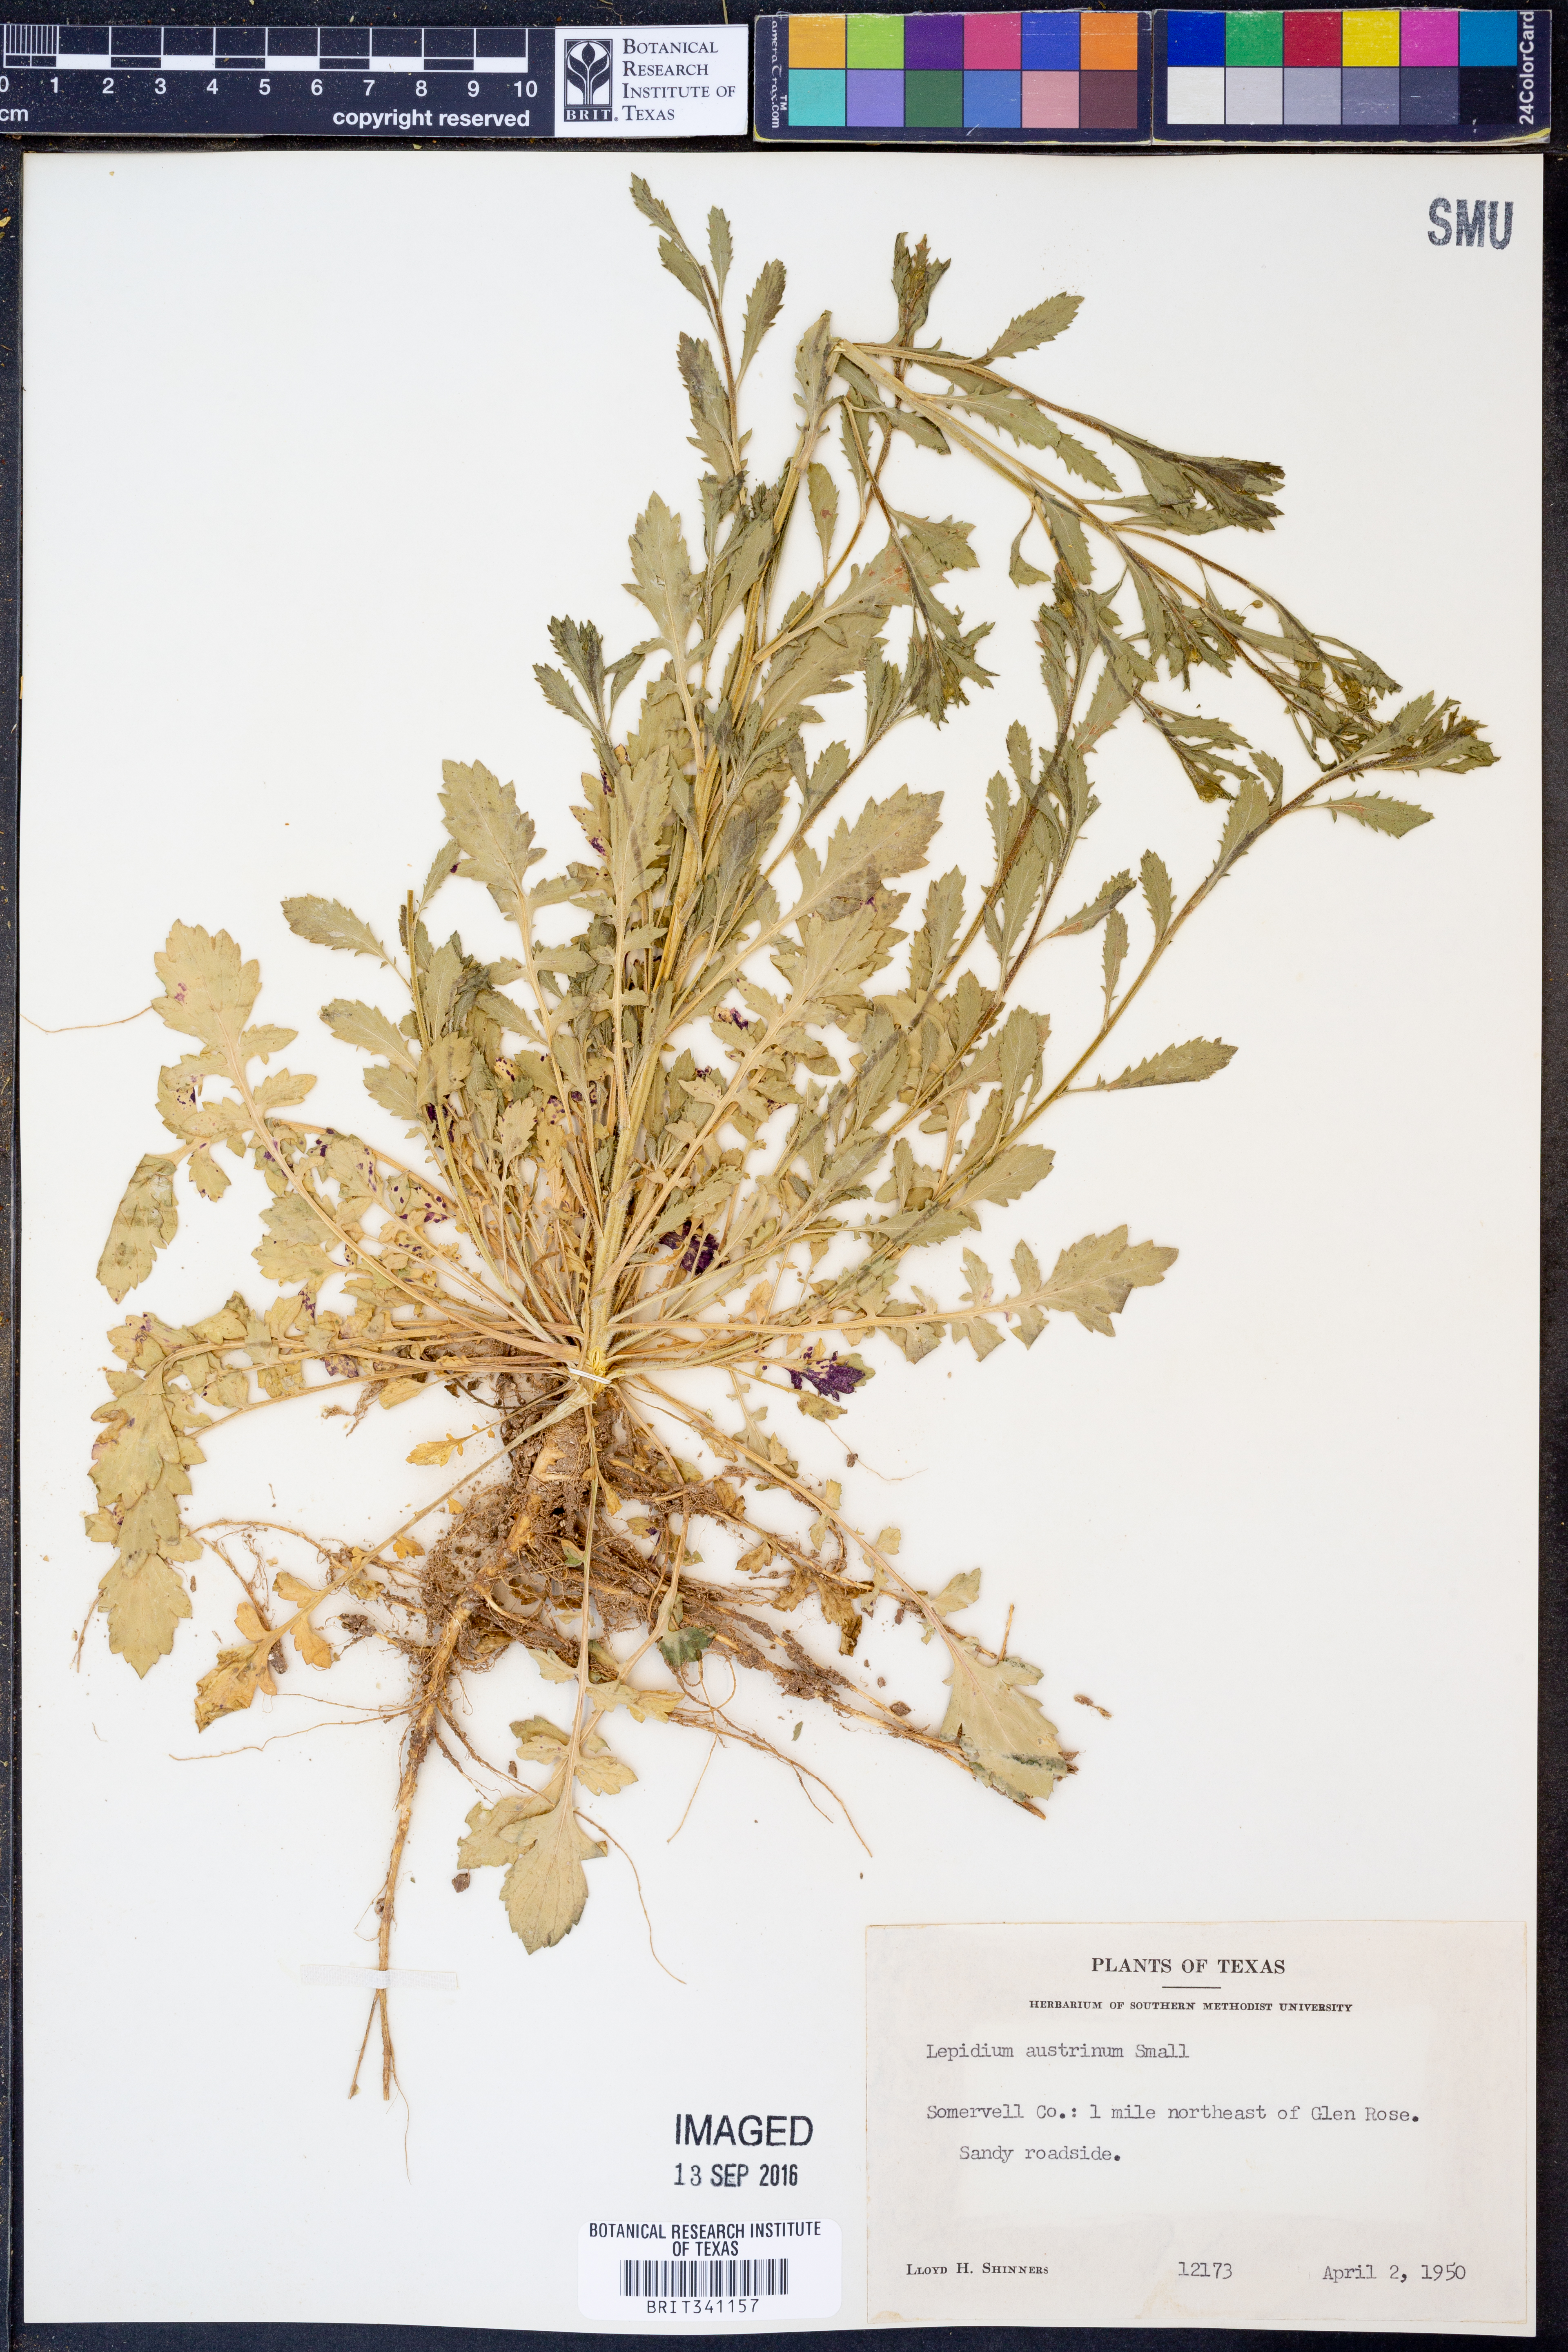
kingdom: Plantae
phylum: Tracheophyta
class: Magnoliopsida
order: Brassicales
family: Brassicaceae
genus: Lepidium
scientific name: Lepidium austrinum
